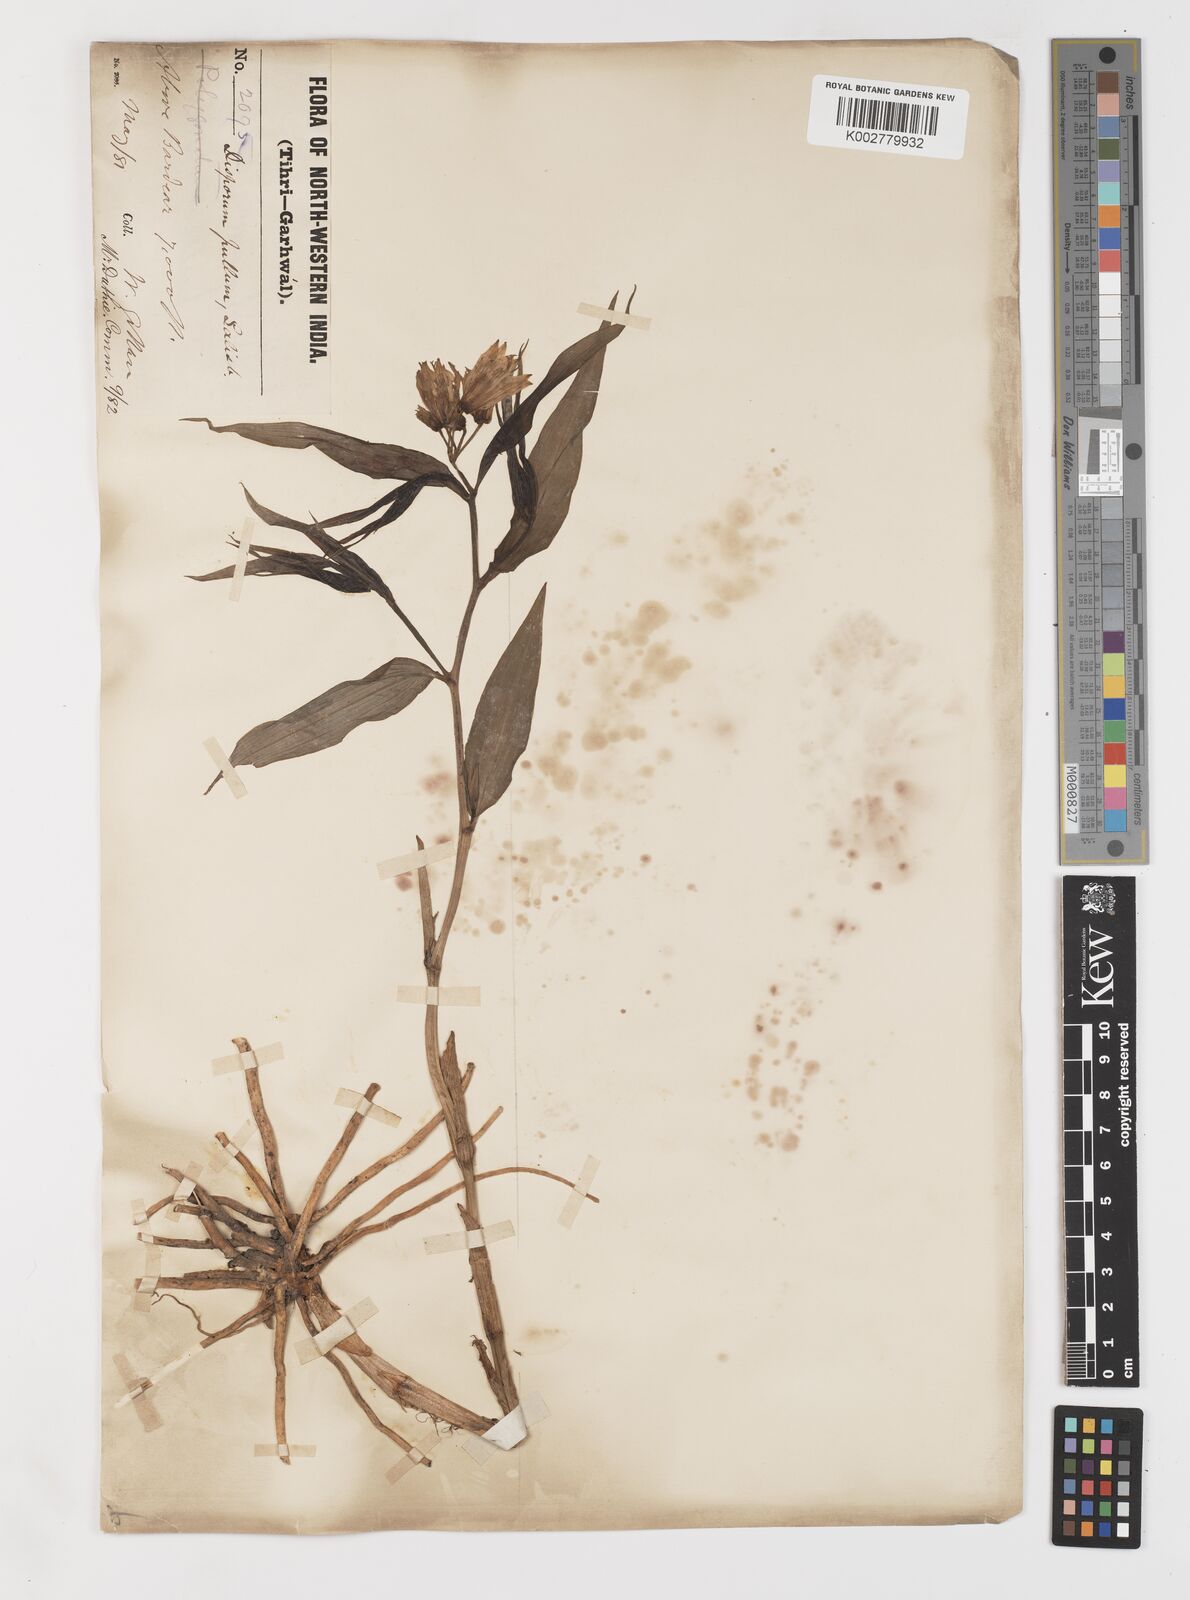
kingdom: Plantae
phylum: Tracheophyta
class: Liliopsida
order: Liliales
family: Colchicaceae
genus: Disporum
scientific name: Disporum cantoniense
